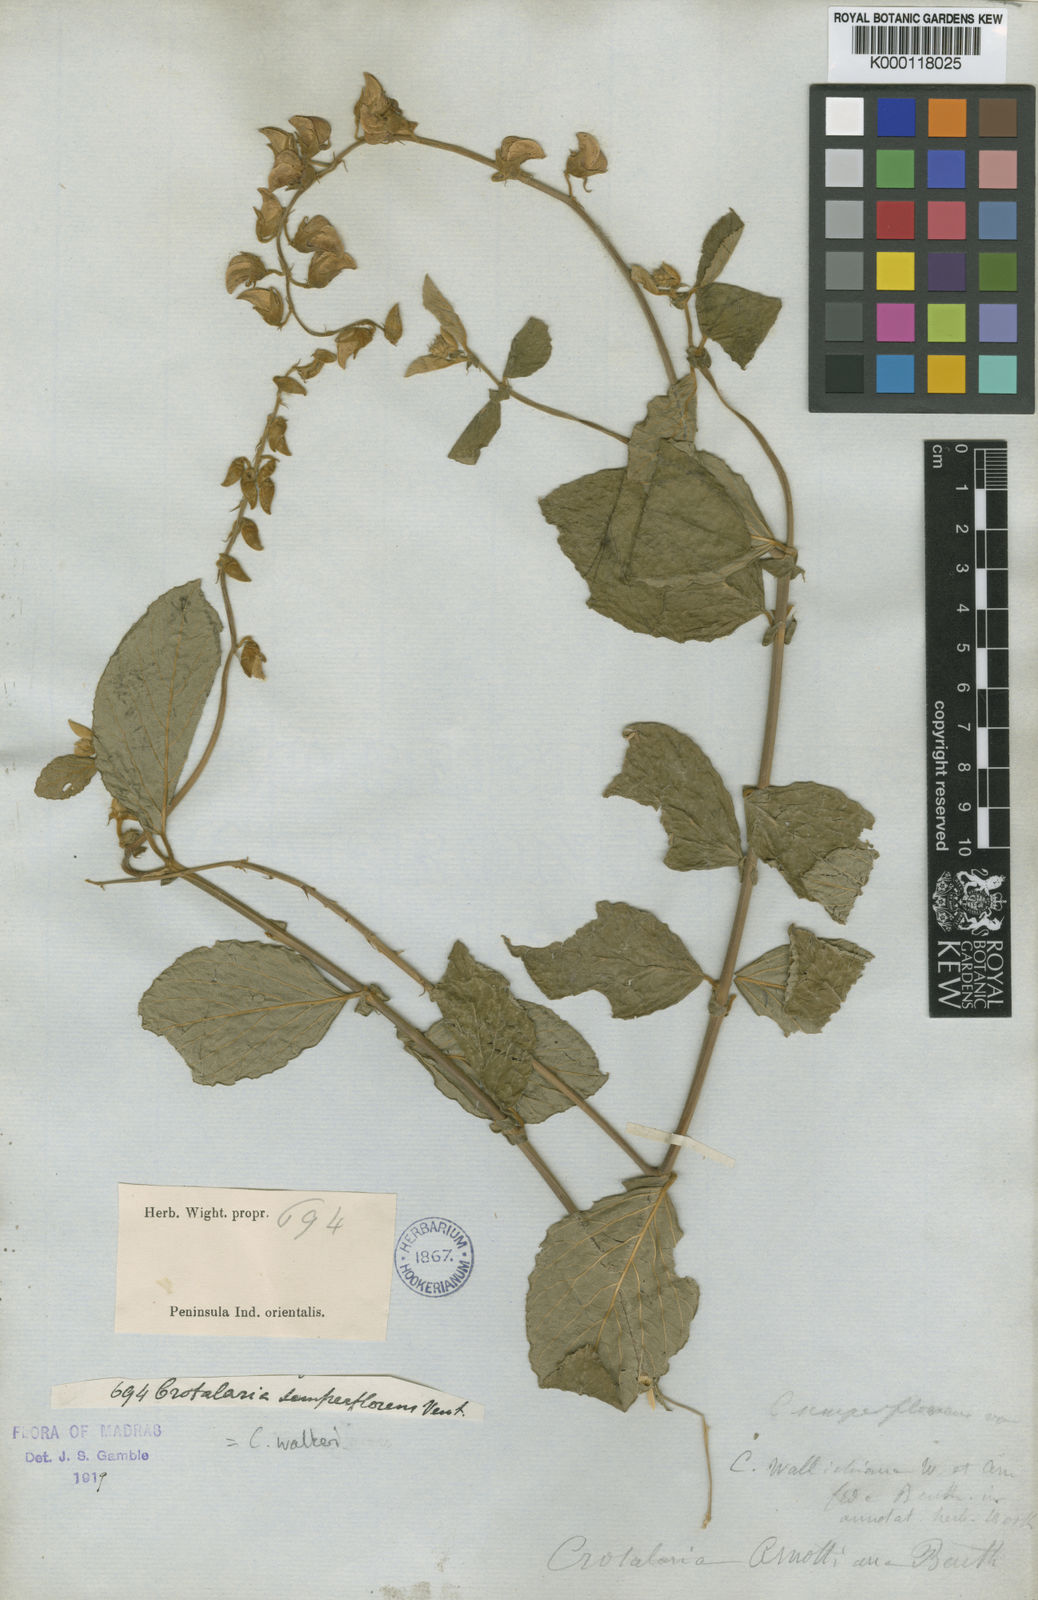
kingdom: Plantae
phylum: Tracheophyta
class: Magnoliopsida
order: Fabales
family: Fabaceae
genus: Crotalaria
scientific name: Crotalaria semperflorens
